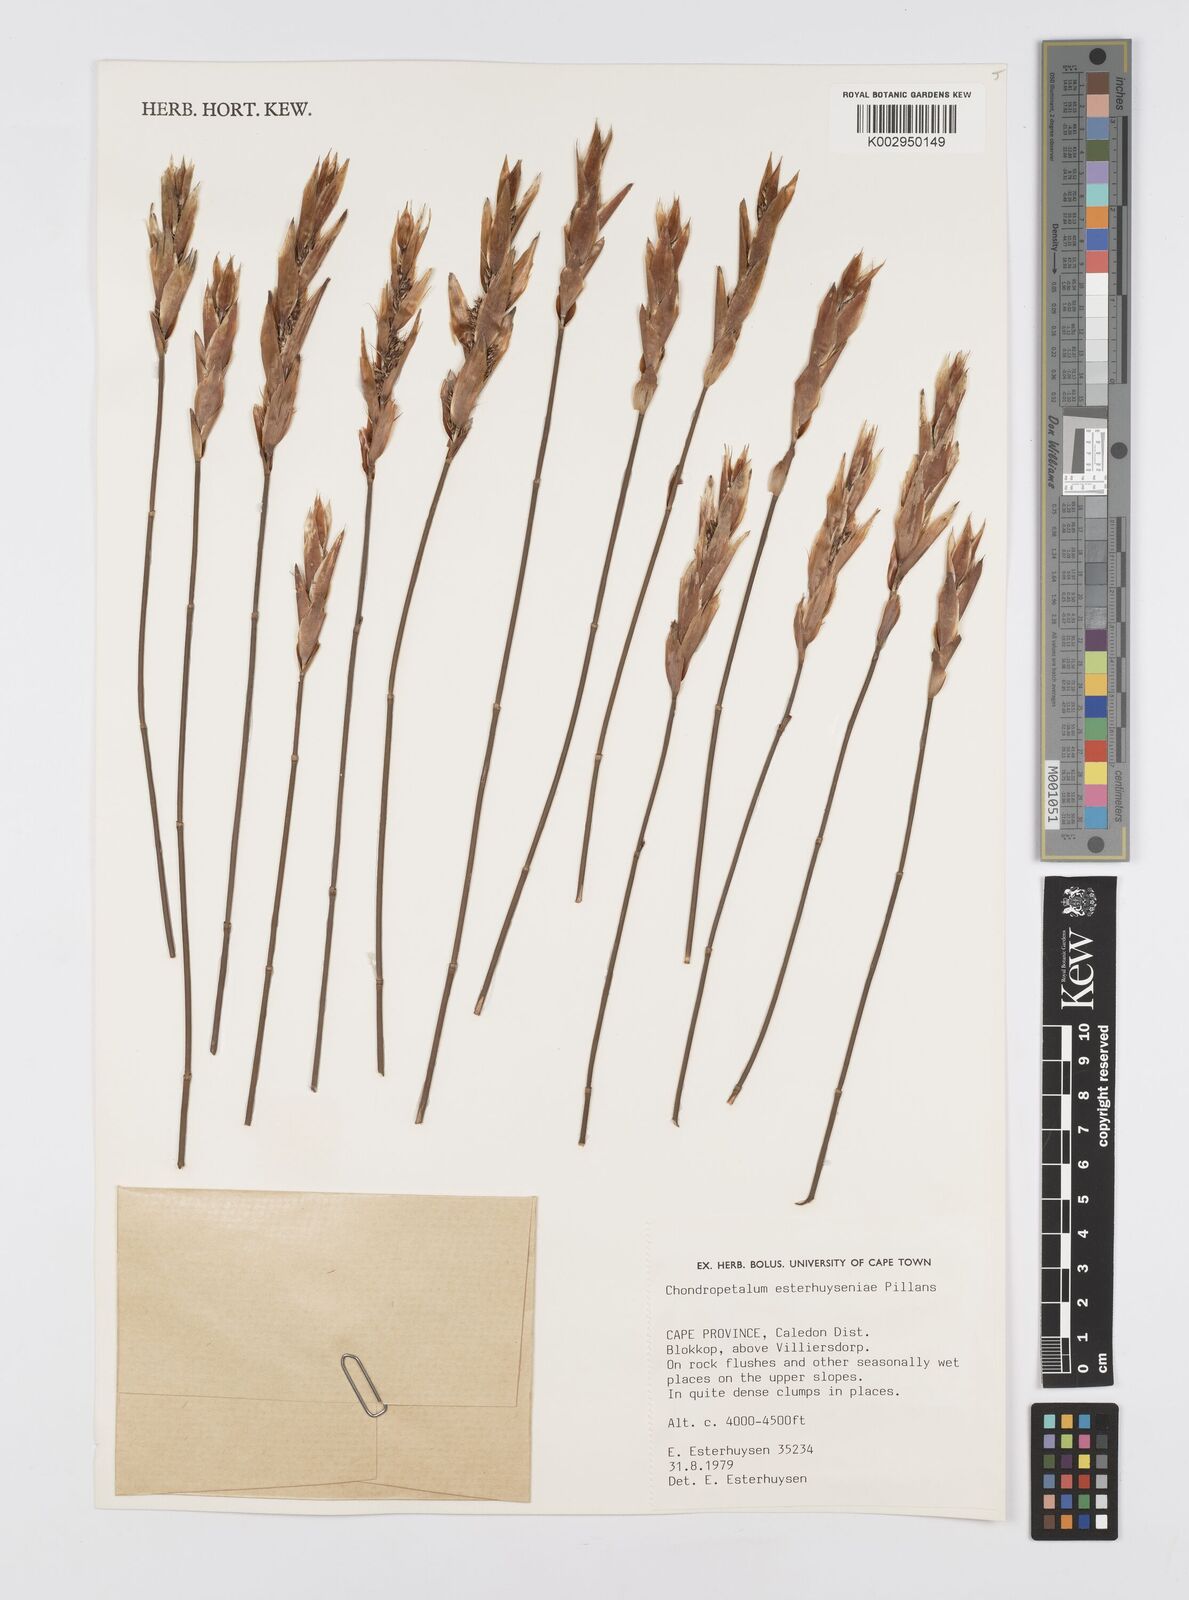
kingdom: Plantae
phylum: Tracheophyta
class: Liliopsida
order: Poales
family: Restionaceae
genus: Askidiosperma
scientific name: Askidiosperma esterhuyseniae
